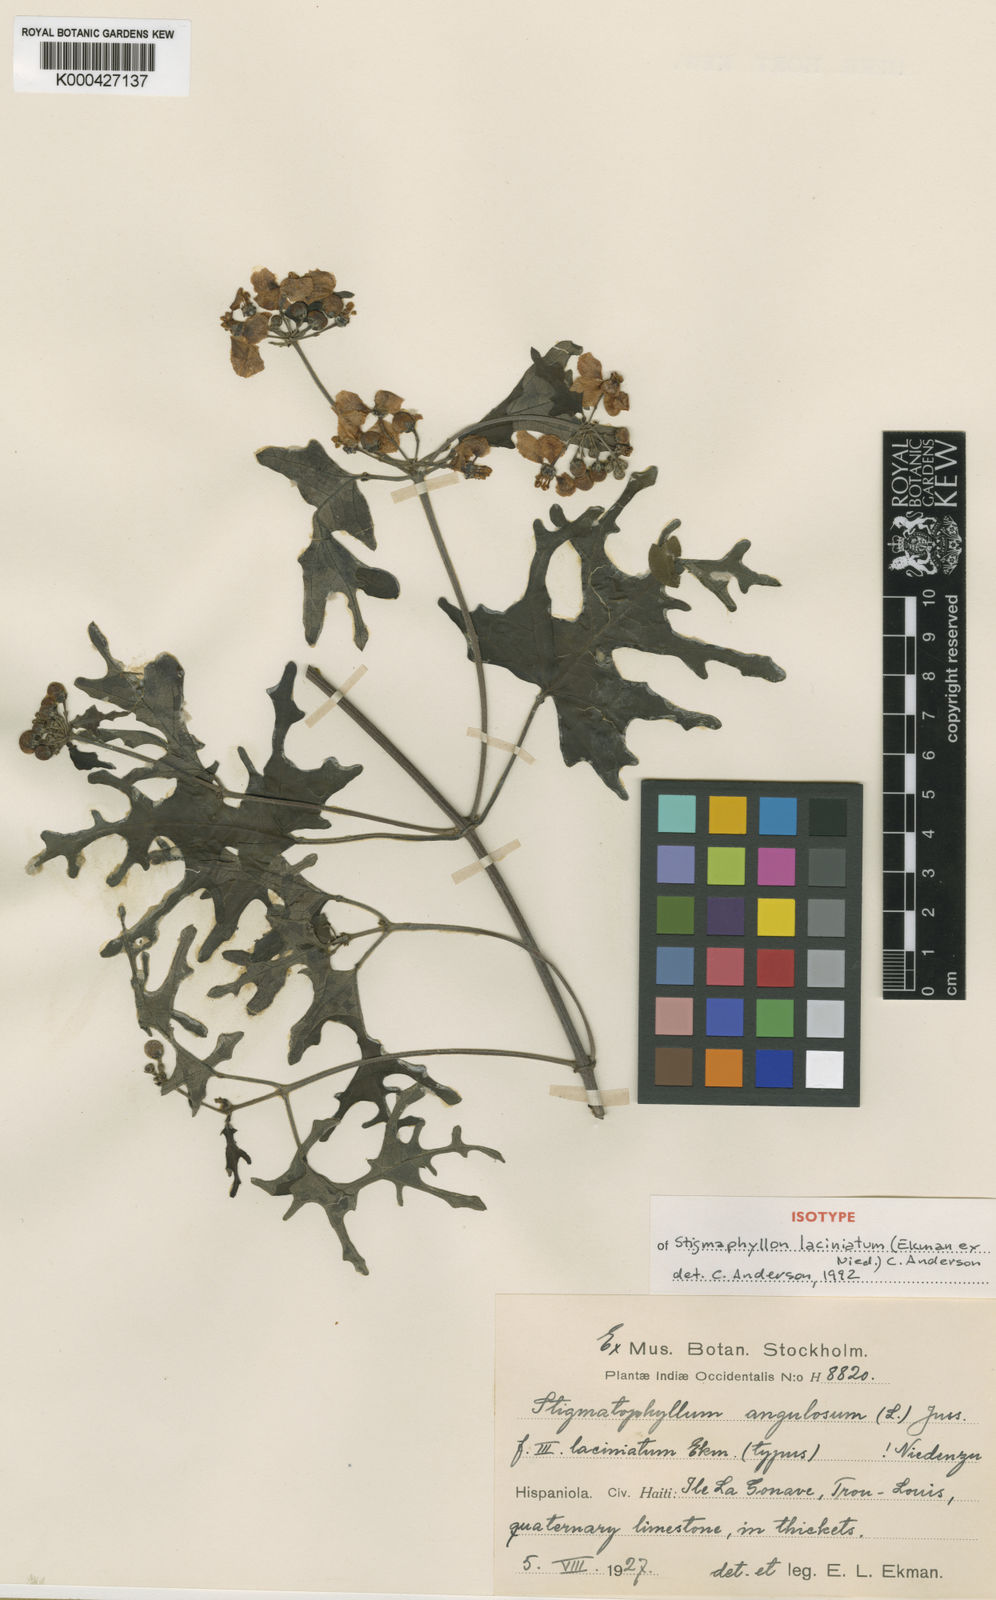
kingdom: Plantae
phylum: Tracheophyta
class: Magnoliopsida
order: Malpighiales
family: Malpighiaceae
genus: Stigmaphyllon
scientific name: Stigmaphyllon laciniatum
